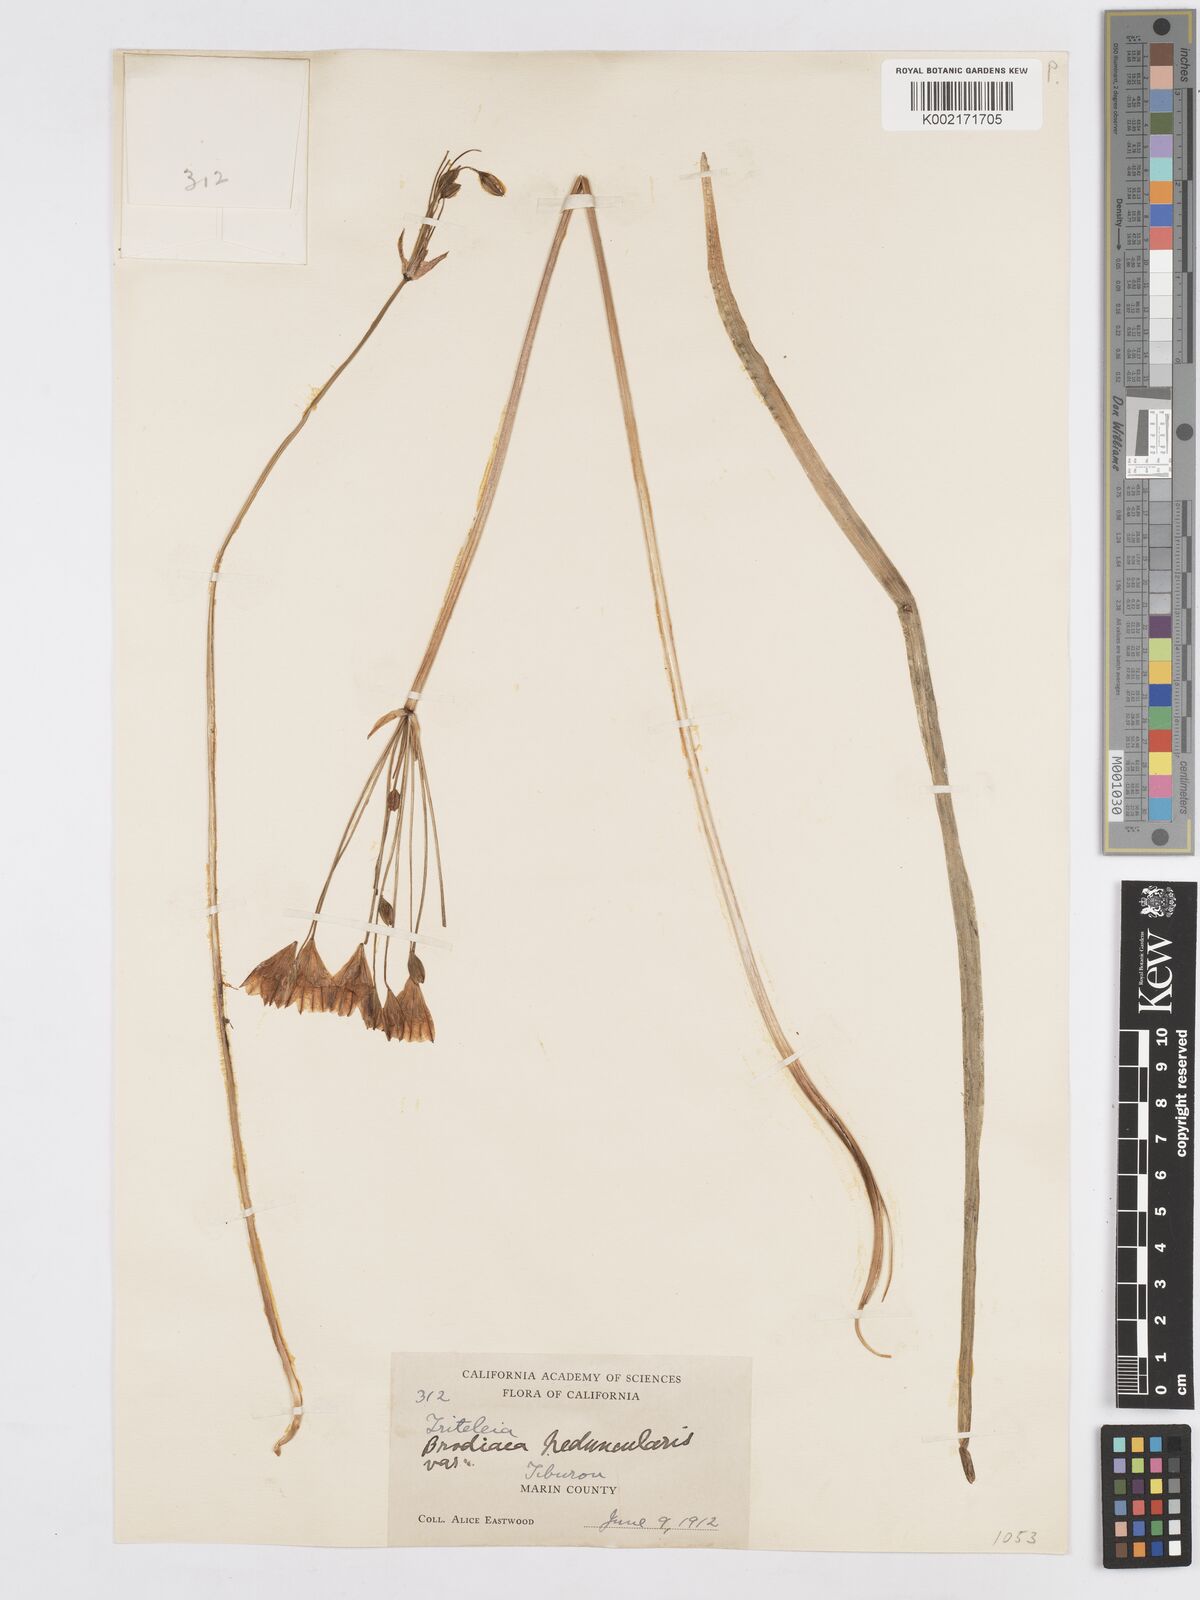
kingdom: Plantae
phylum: Tracheophyta
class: Liliopsida
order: Asparagales
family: Asparagaceae
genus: Triteleia
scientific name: Triteleia peduncularis
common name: Long-ray brodiaea
